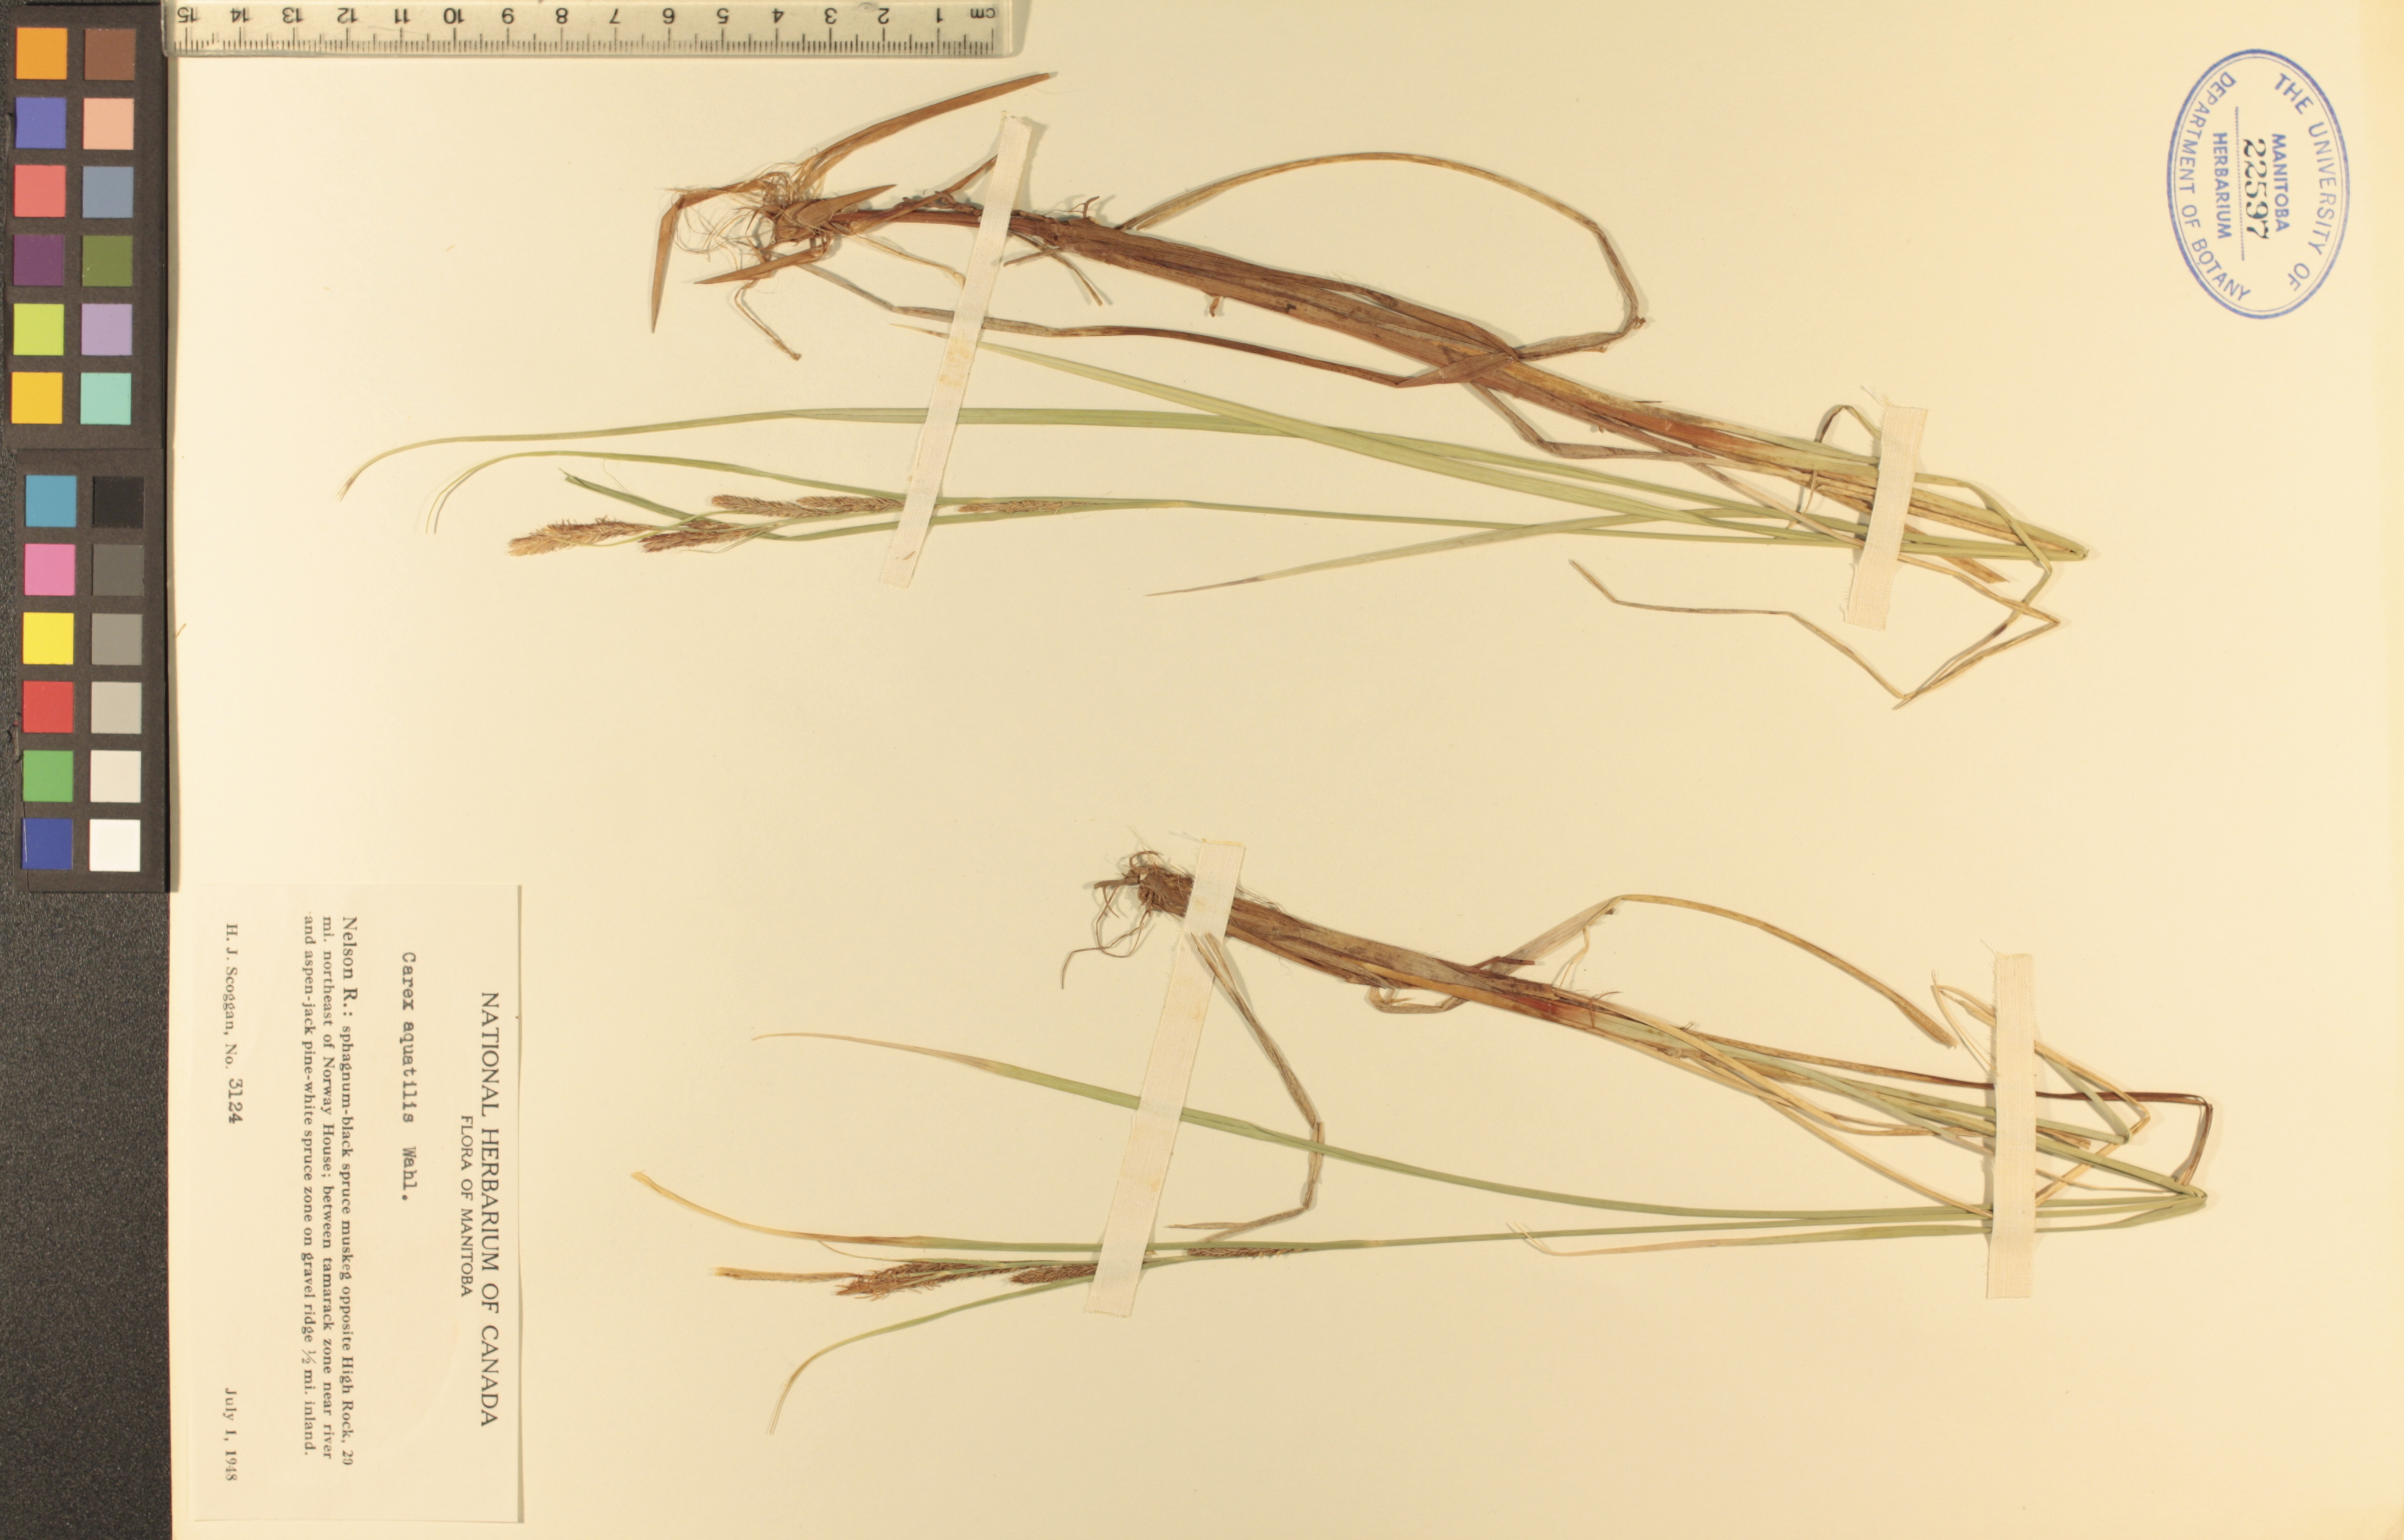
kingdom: Plantae
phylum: Tracheophyta
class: Liliopsida
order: Poales
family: Cyperaceae
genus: Carex
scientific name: Carex aquatilis
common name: Water sedge
